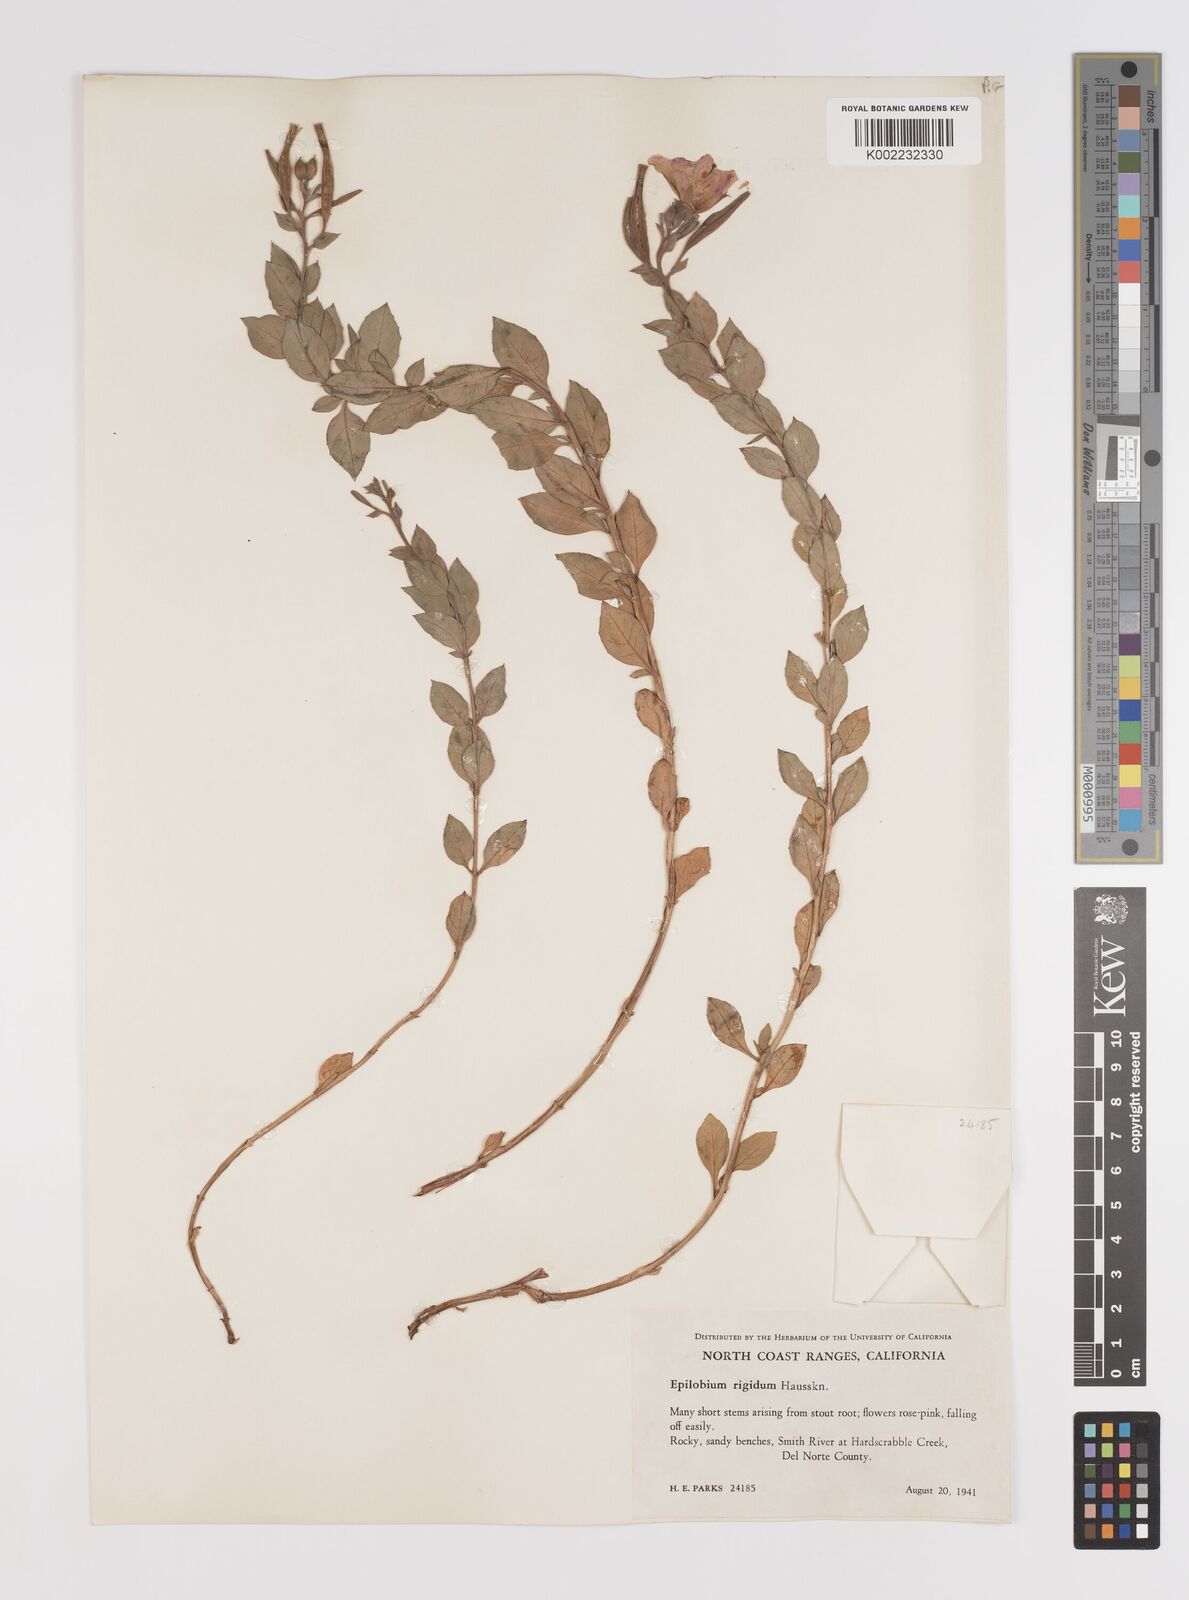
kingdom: Plantae
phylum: Tracheophyta
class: Magnoliopsida
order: Myrtales
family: Onagraceae
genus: Epilobium
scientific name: Epilobium rigidum
